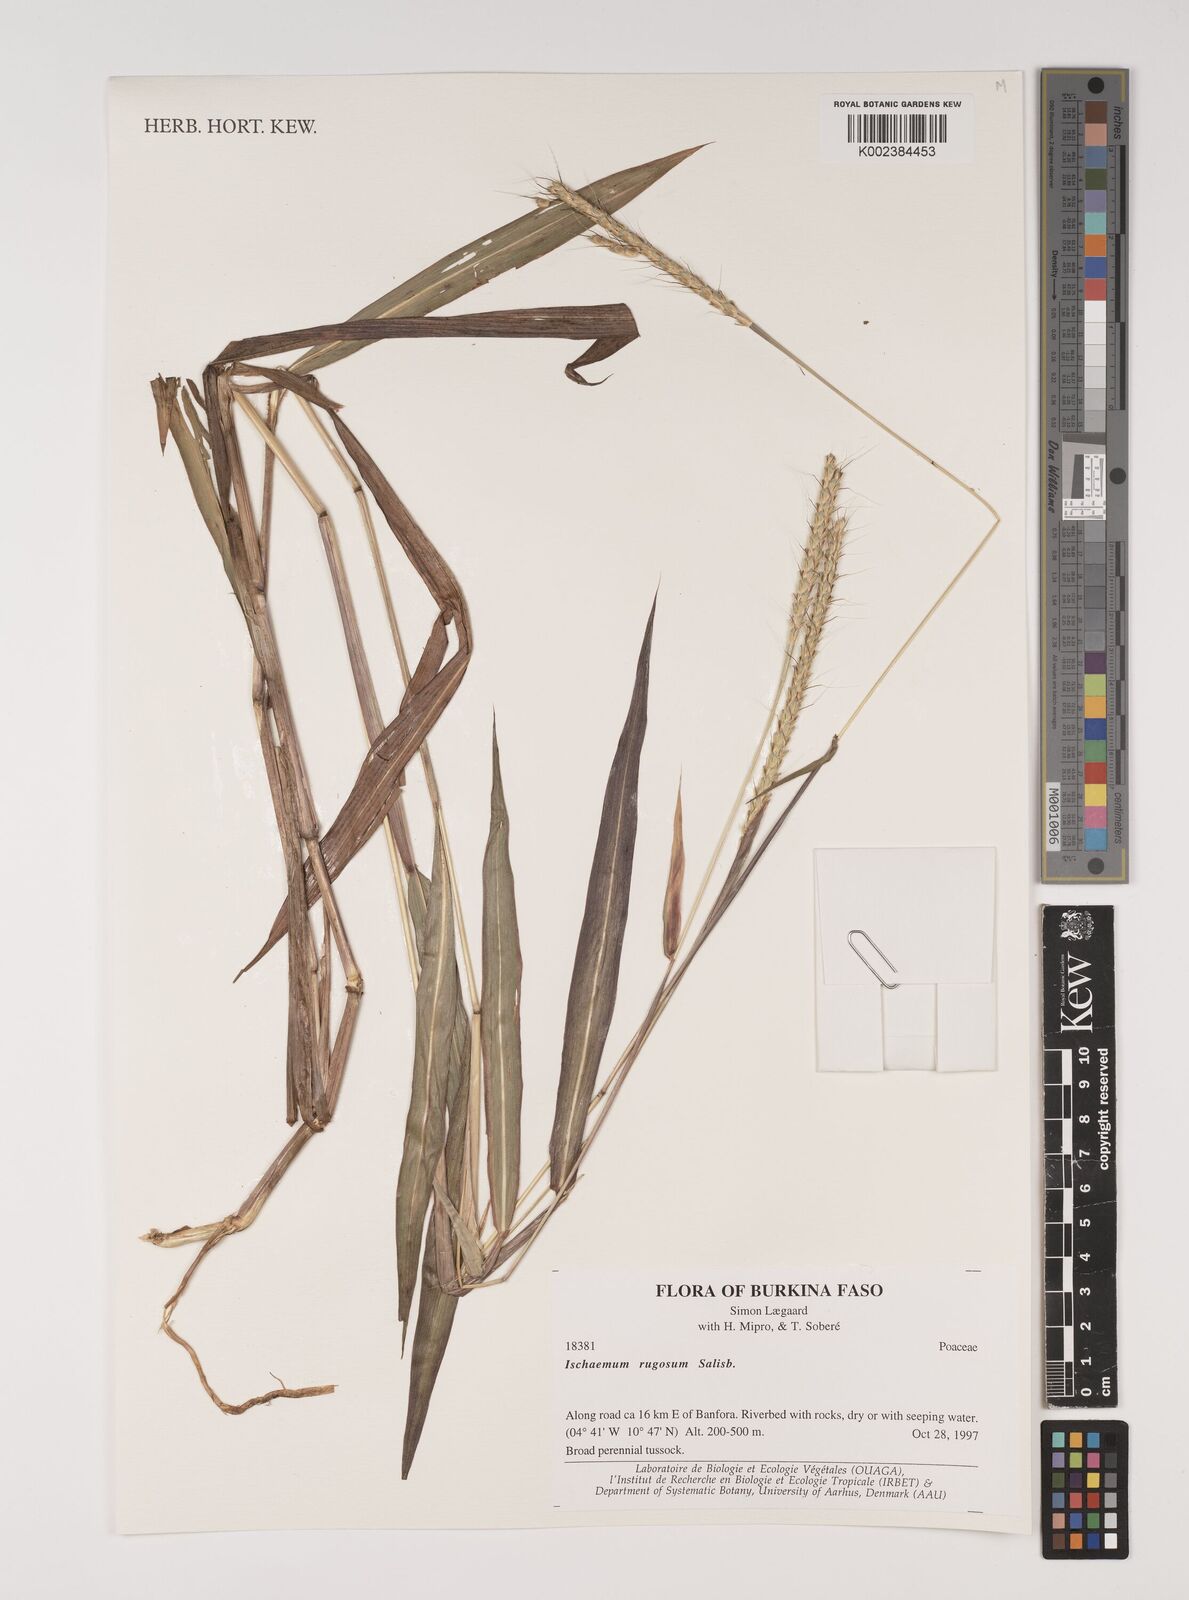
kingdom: Plantae
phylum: Tracheophyta
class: Liliopsida
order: Poales
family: Poaceae
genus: Ischaemum
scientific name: Ischaemum rugosum
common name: Saramatta grass
